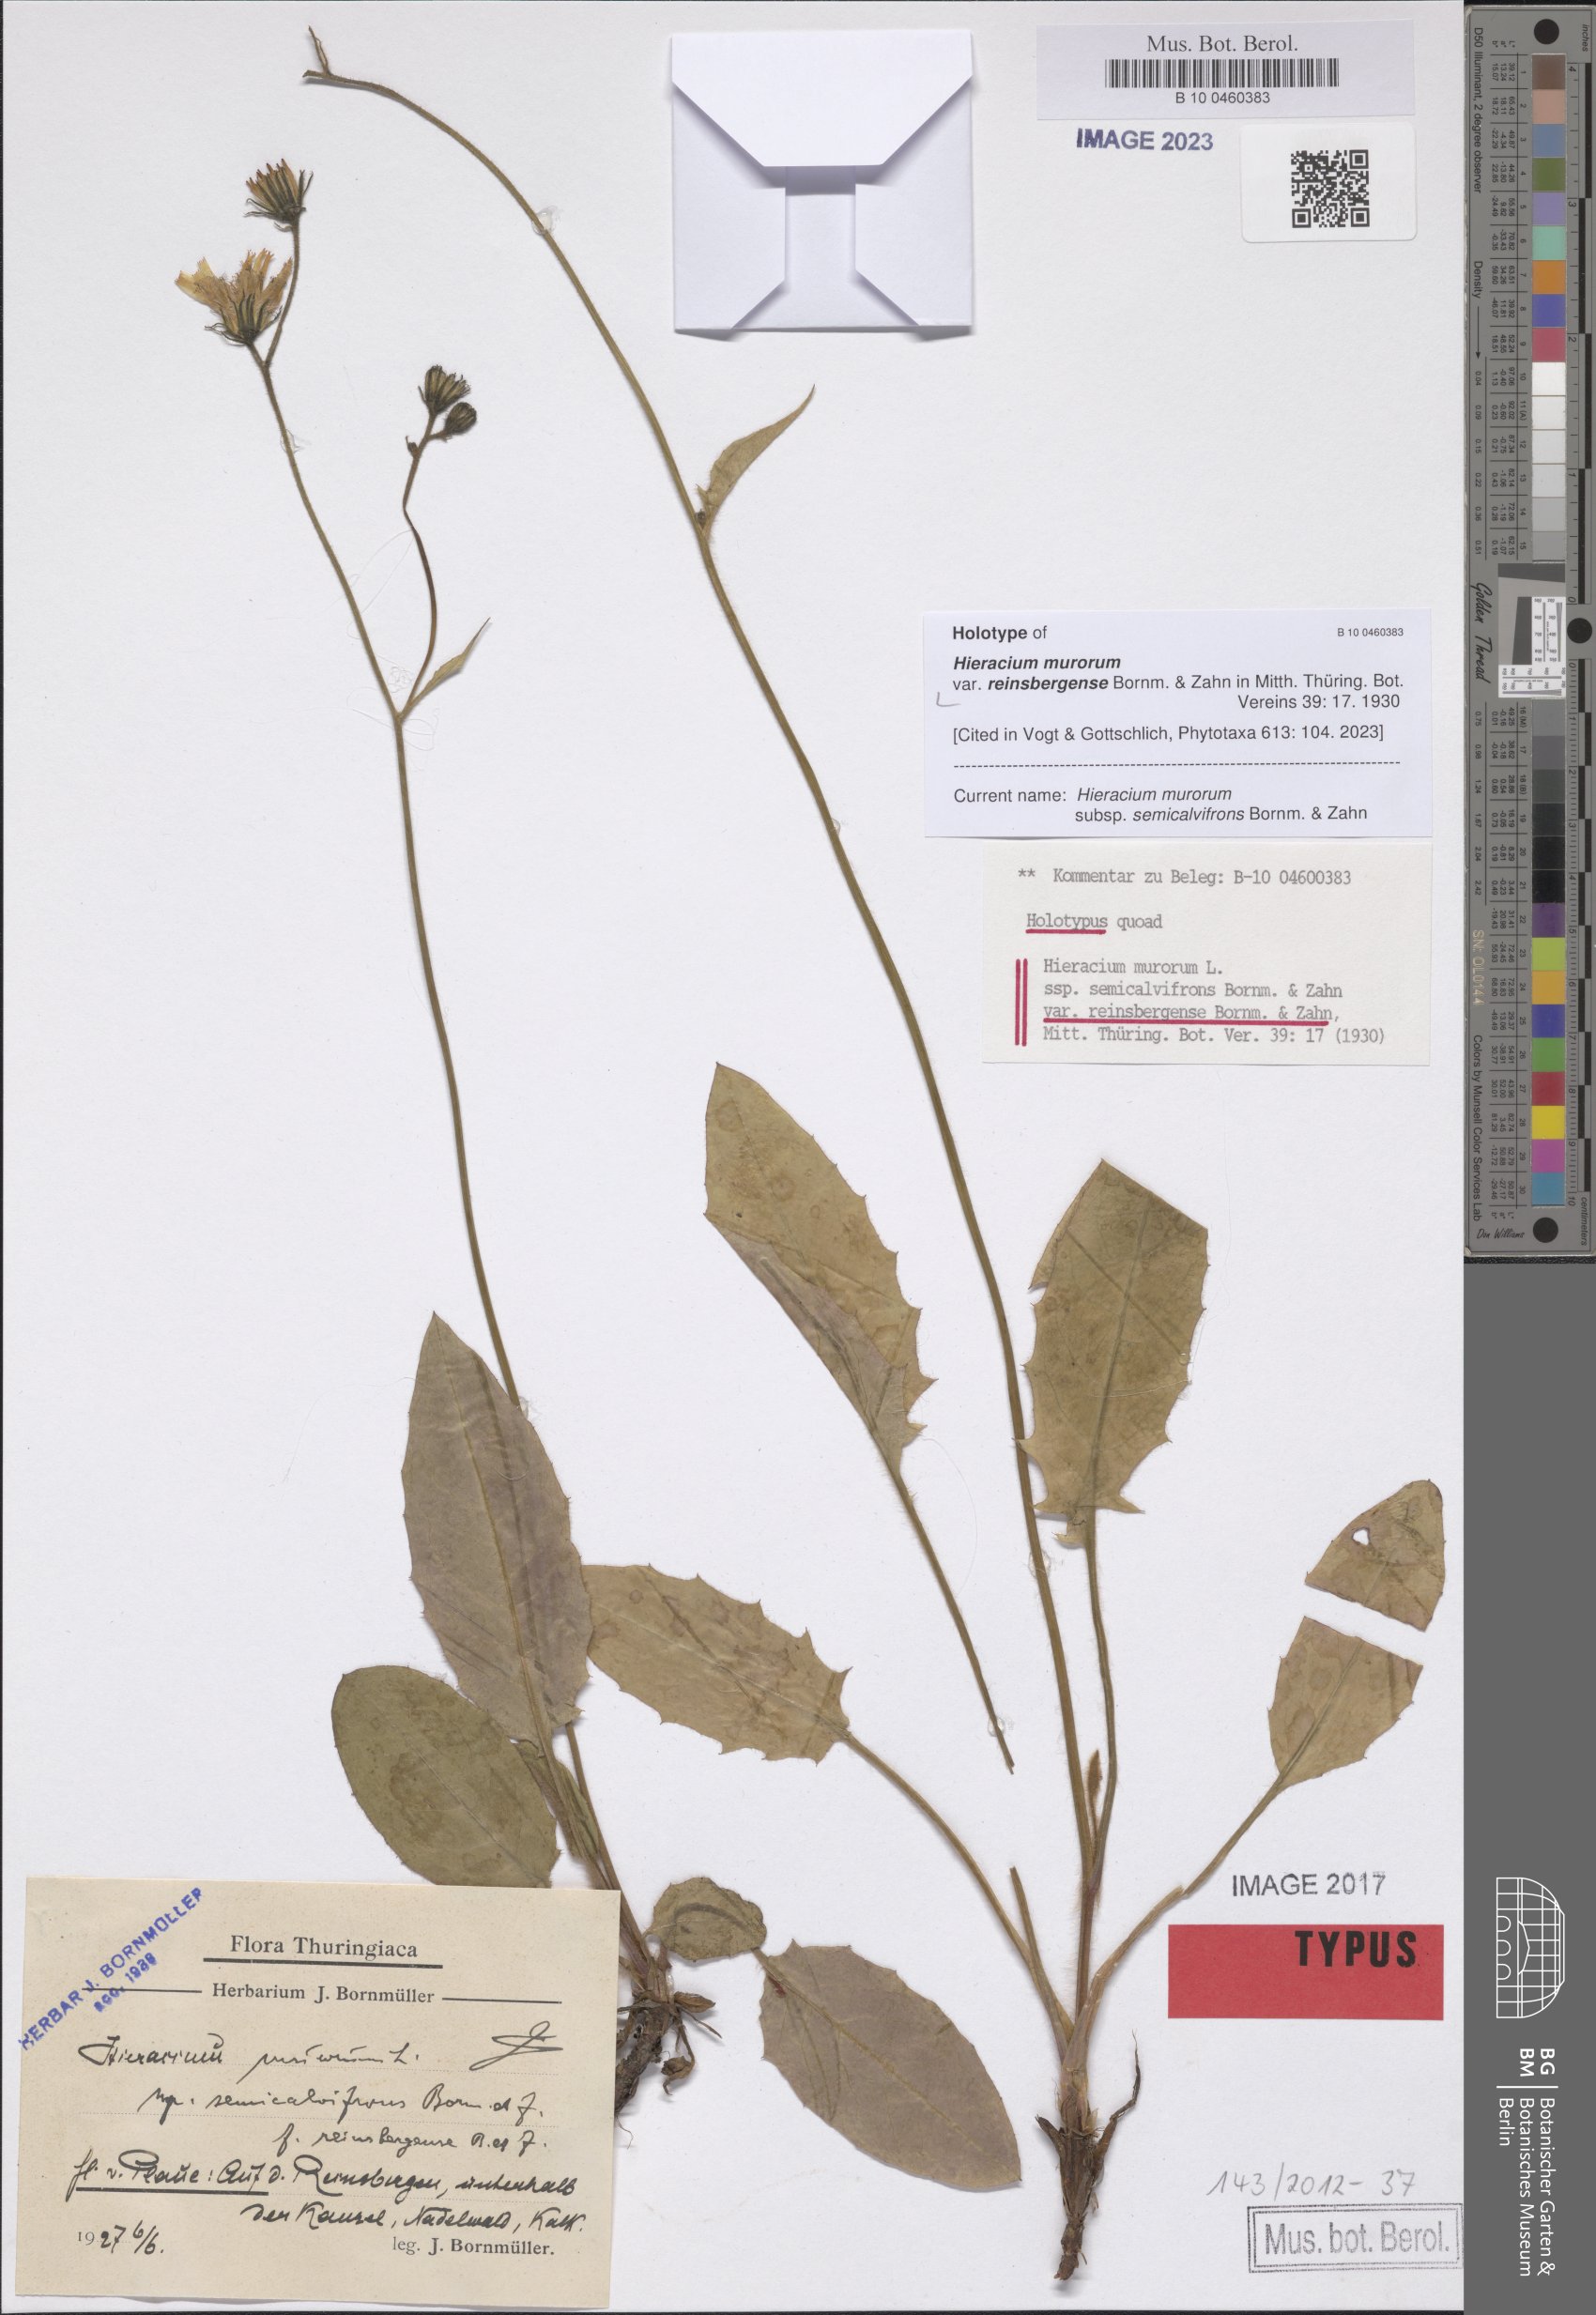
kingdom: Plantae
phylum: Tracheophyta
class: Magnoliopsida
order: Asterales
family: Asteraceae
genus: Hieracium
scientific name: Hieracium murorum
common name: Wall hawkweed
